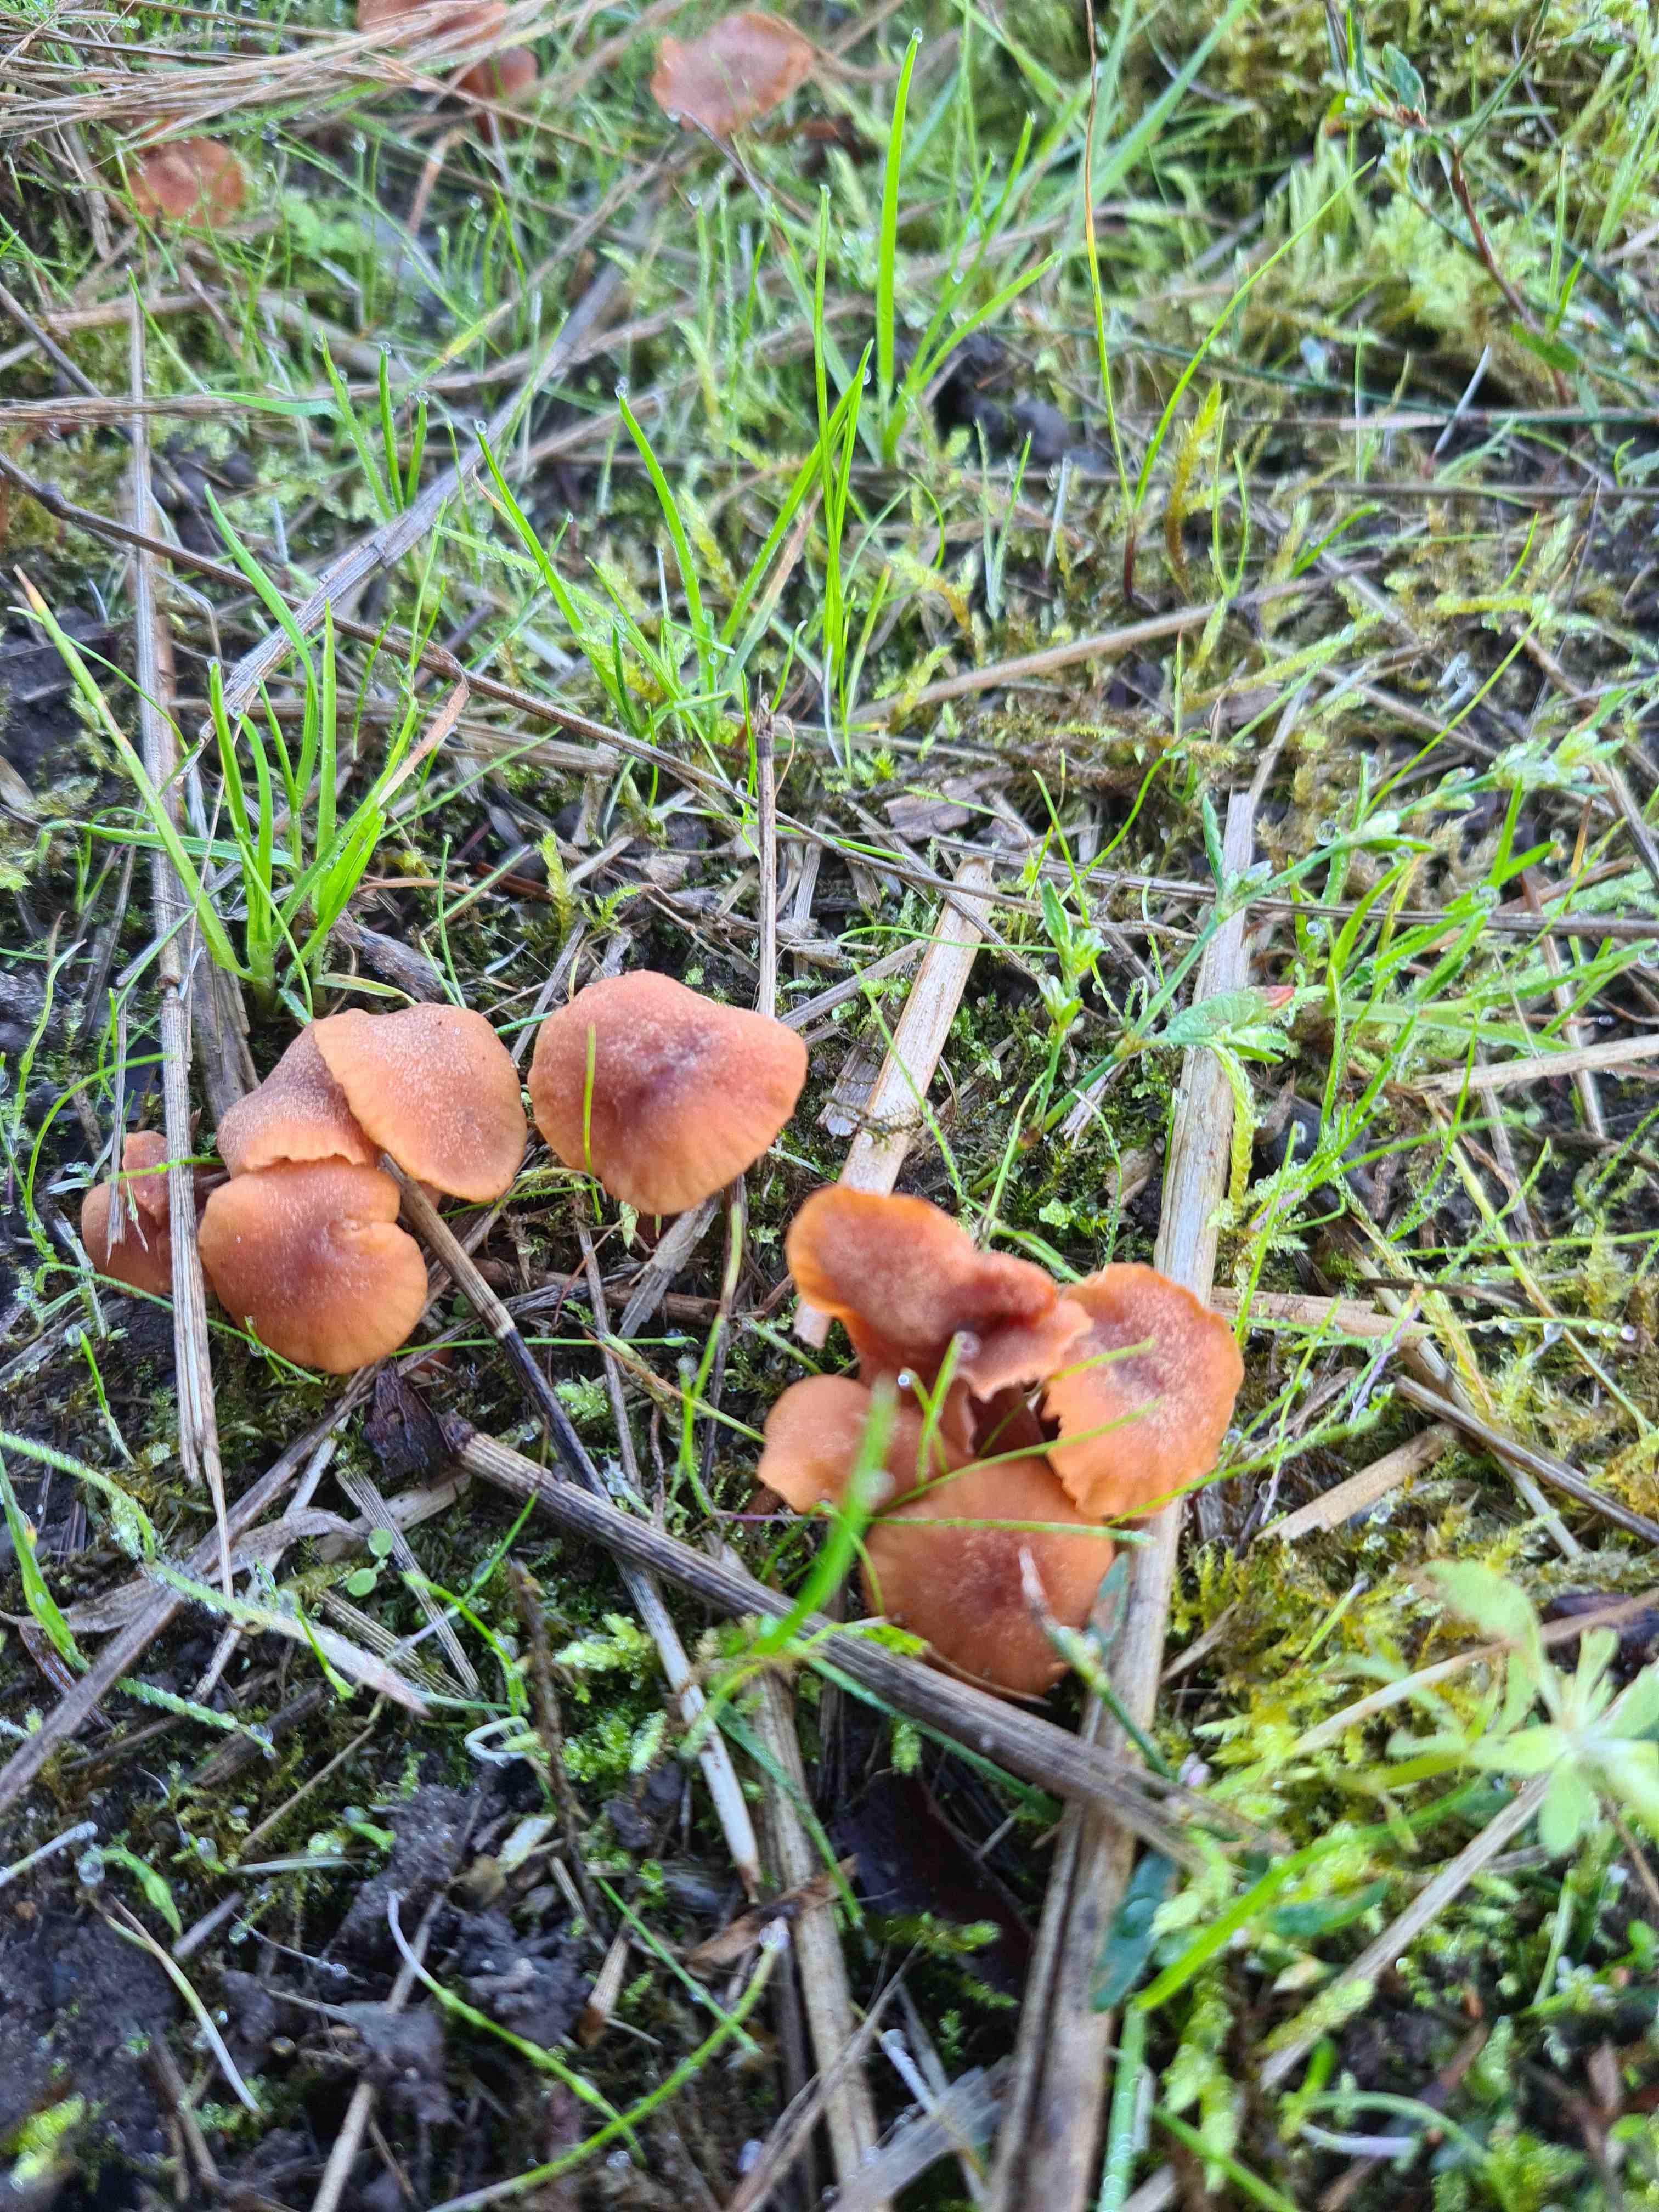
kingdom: Fungi
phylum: Basidiomycota
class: Agaricomycetes
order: Agaricales
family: Hydnangiaceae
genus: Laccaria
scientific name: Laccaria
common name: ametysthat
